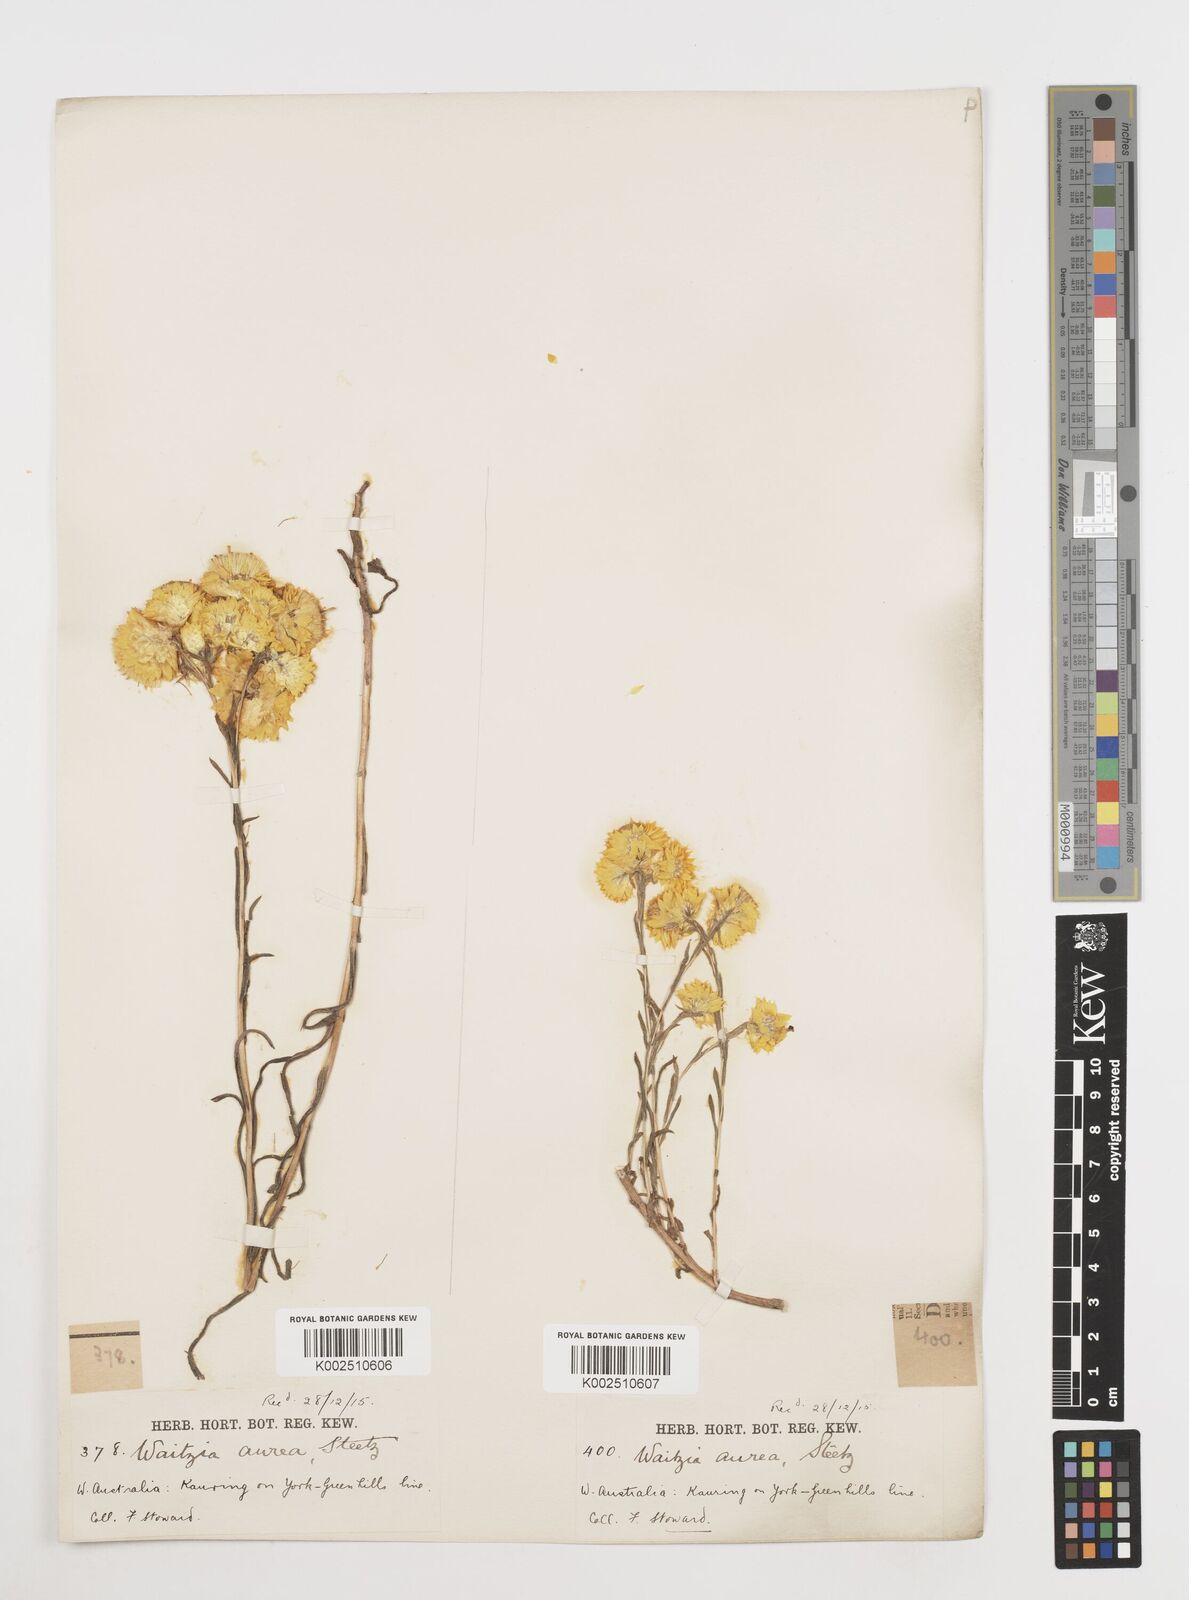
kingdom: Plantae
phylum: Tracheophyta
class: Magnoliopsida
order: Asterales
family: Asteraceae
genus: Waitzia
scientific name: Waitzia nitida
